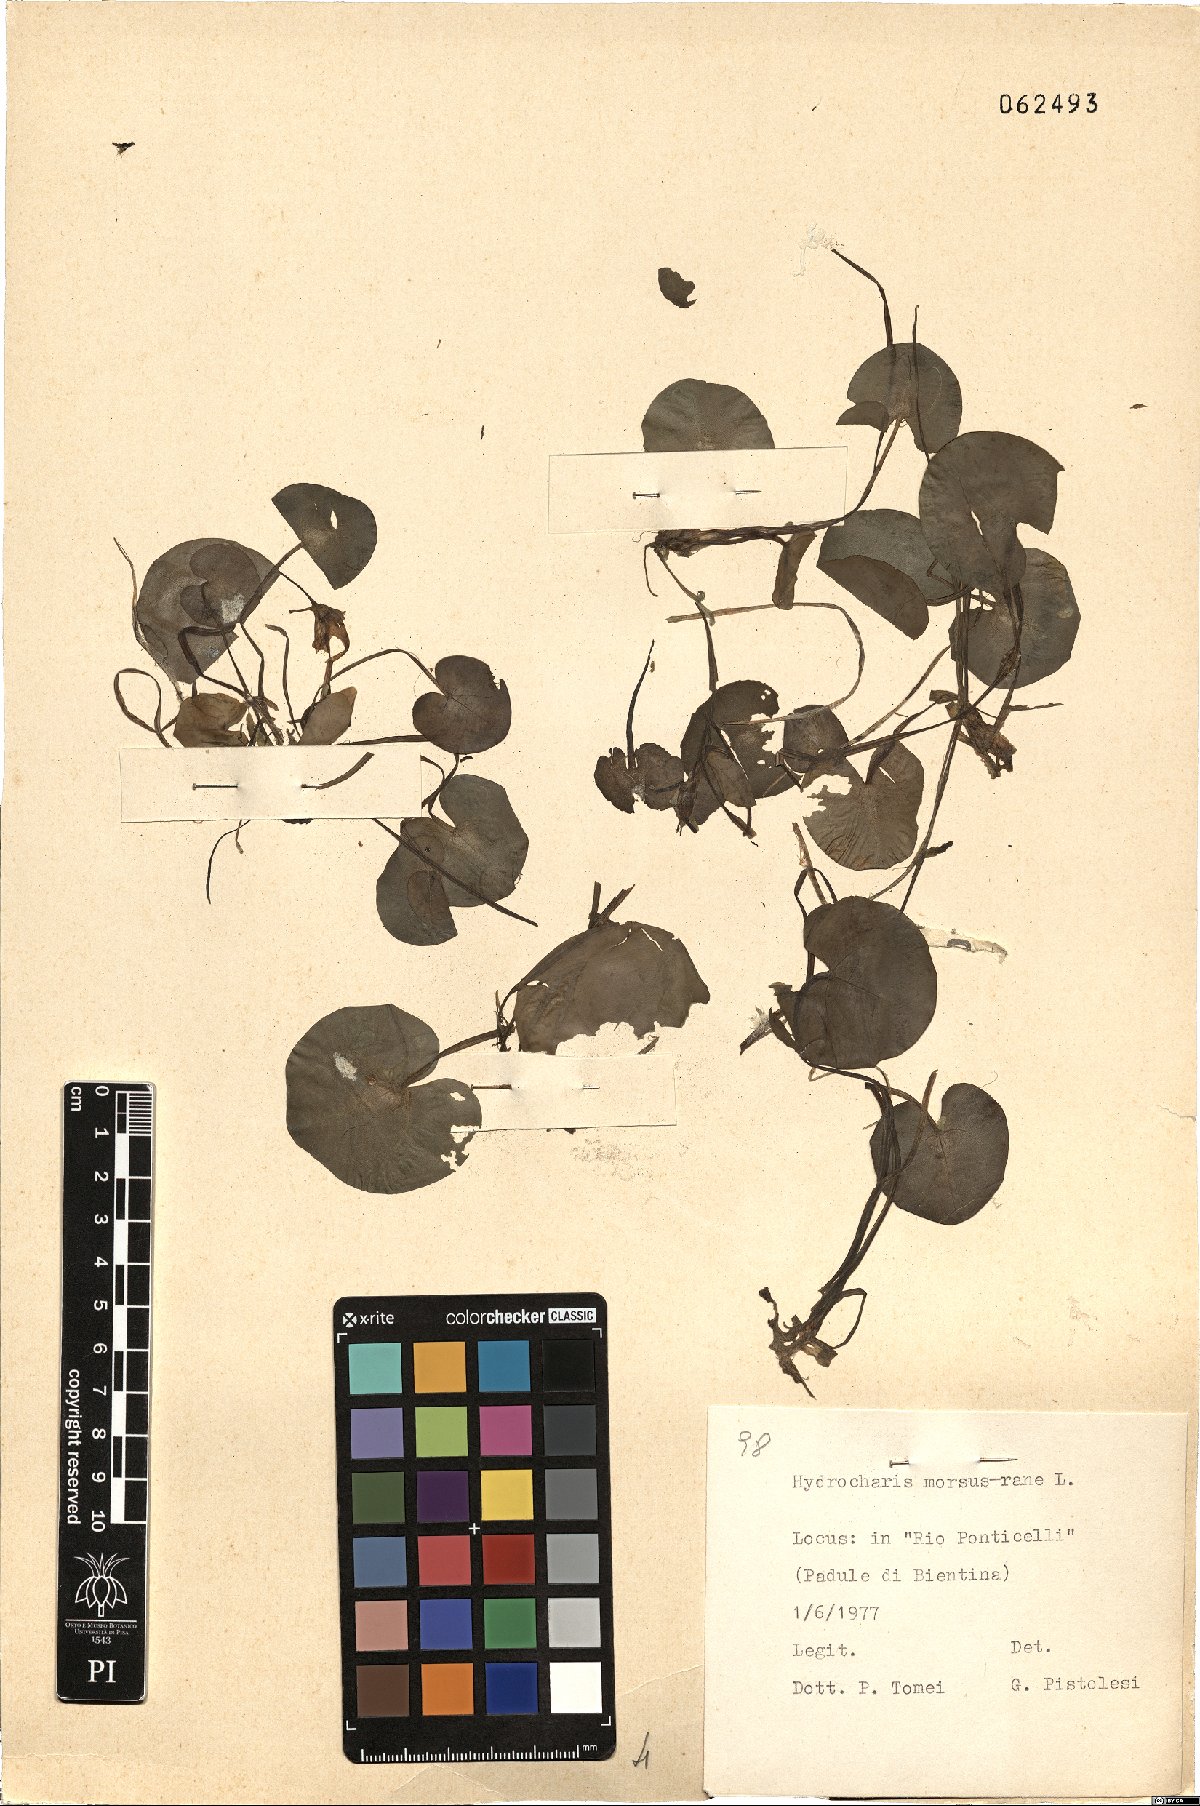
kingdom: Plantae
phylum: Tracheophyta
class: Liliopsida
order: Alismatales
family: Hydrocharitaceae
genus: Hydrocharis
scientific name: Hydrocharis morsus-ranae
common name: Frogbit
